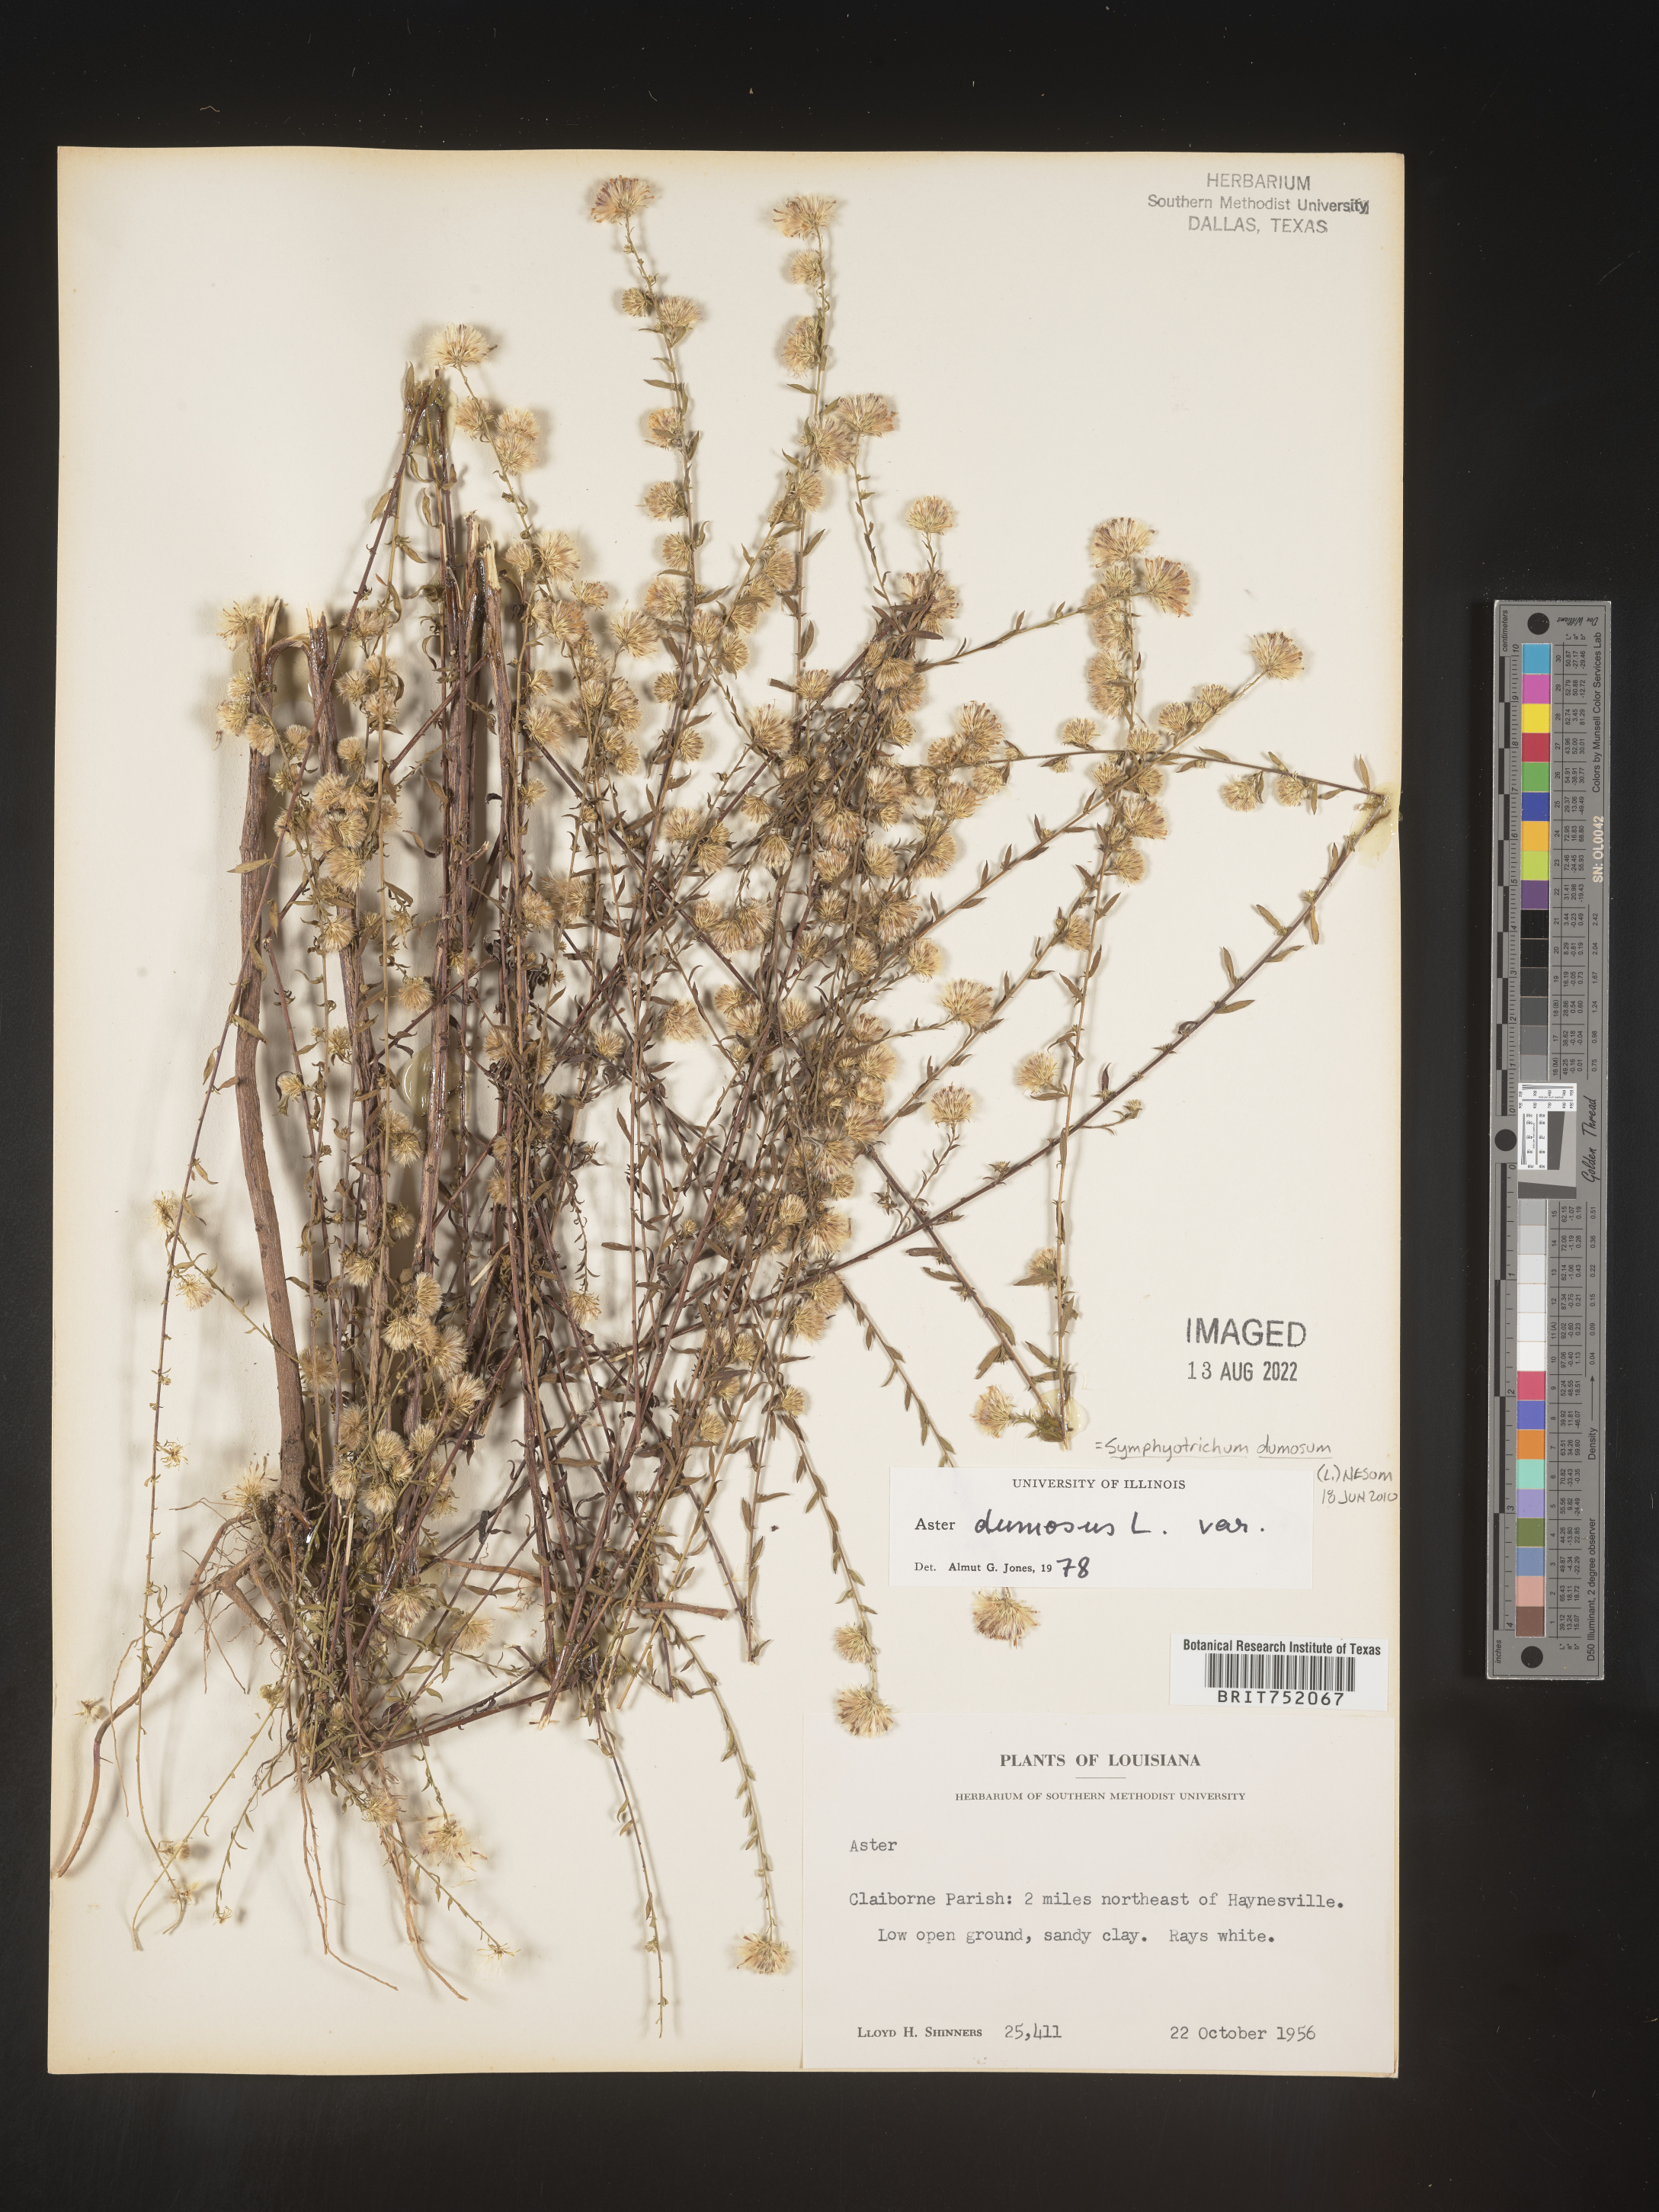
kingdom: Plantae
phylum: Tracheophyta
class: Magnoliopsida
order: Asterales
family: Asteraceae
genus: Symphyotrichum
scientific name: Symphyotrichum dumosum
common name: Bushy aster
